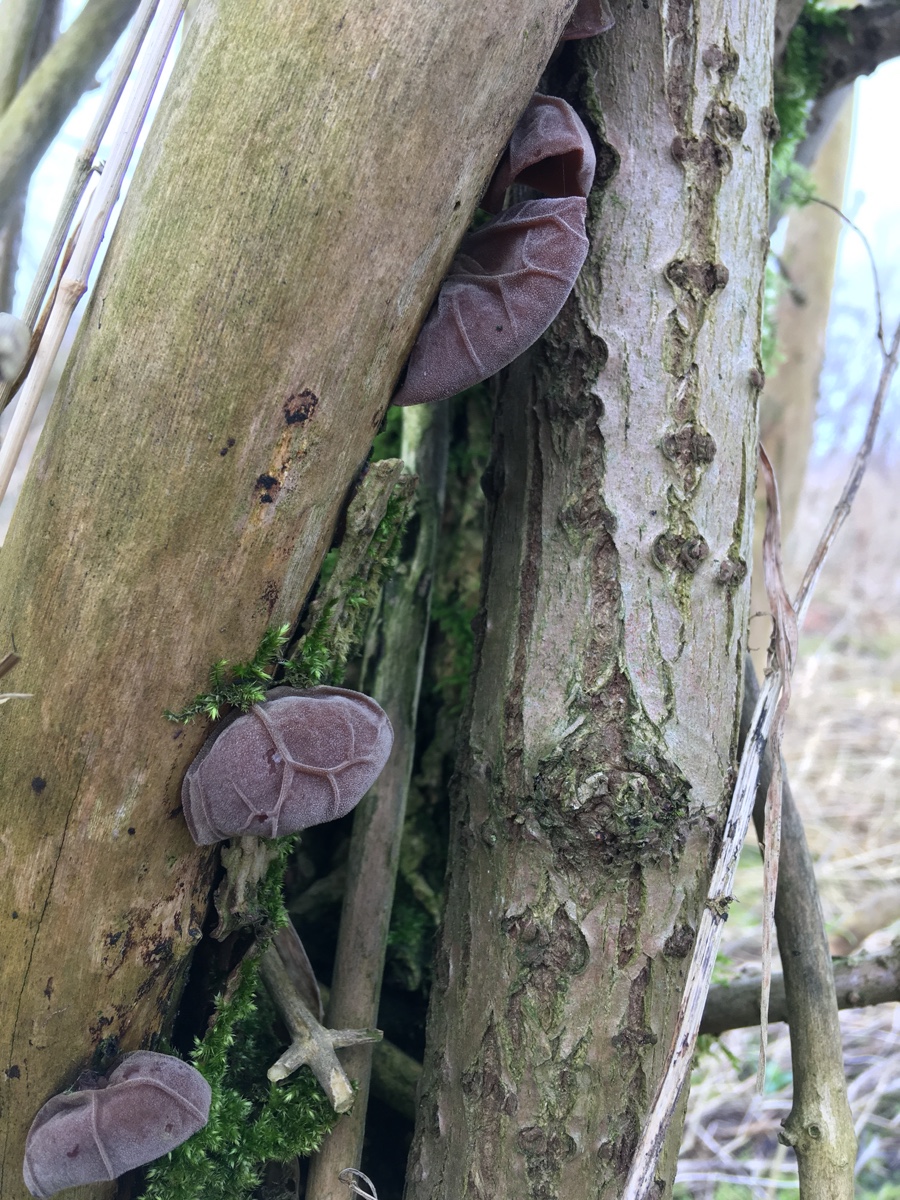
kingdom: Fungi
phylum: Basidiomycota
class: Agaricomycetes
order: Auriculariales
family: Auriculariaceae
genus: Auricularia
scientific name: Auricularia auricula-judae
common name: almindelig judasøre
